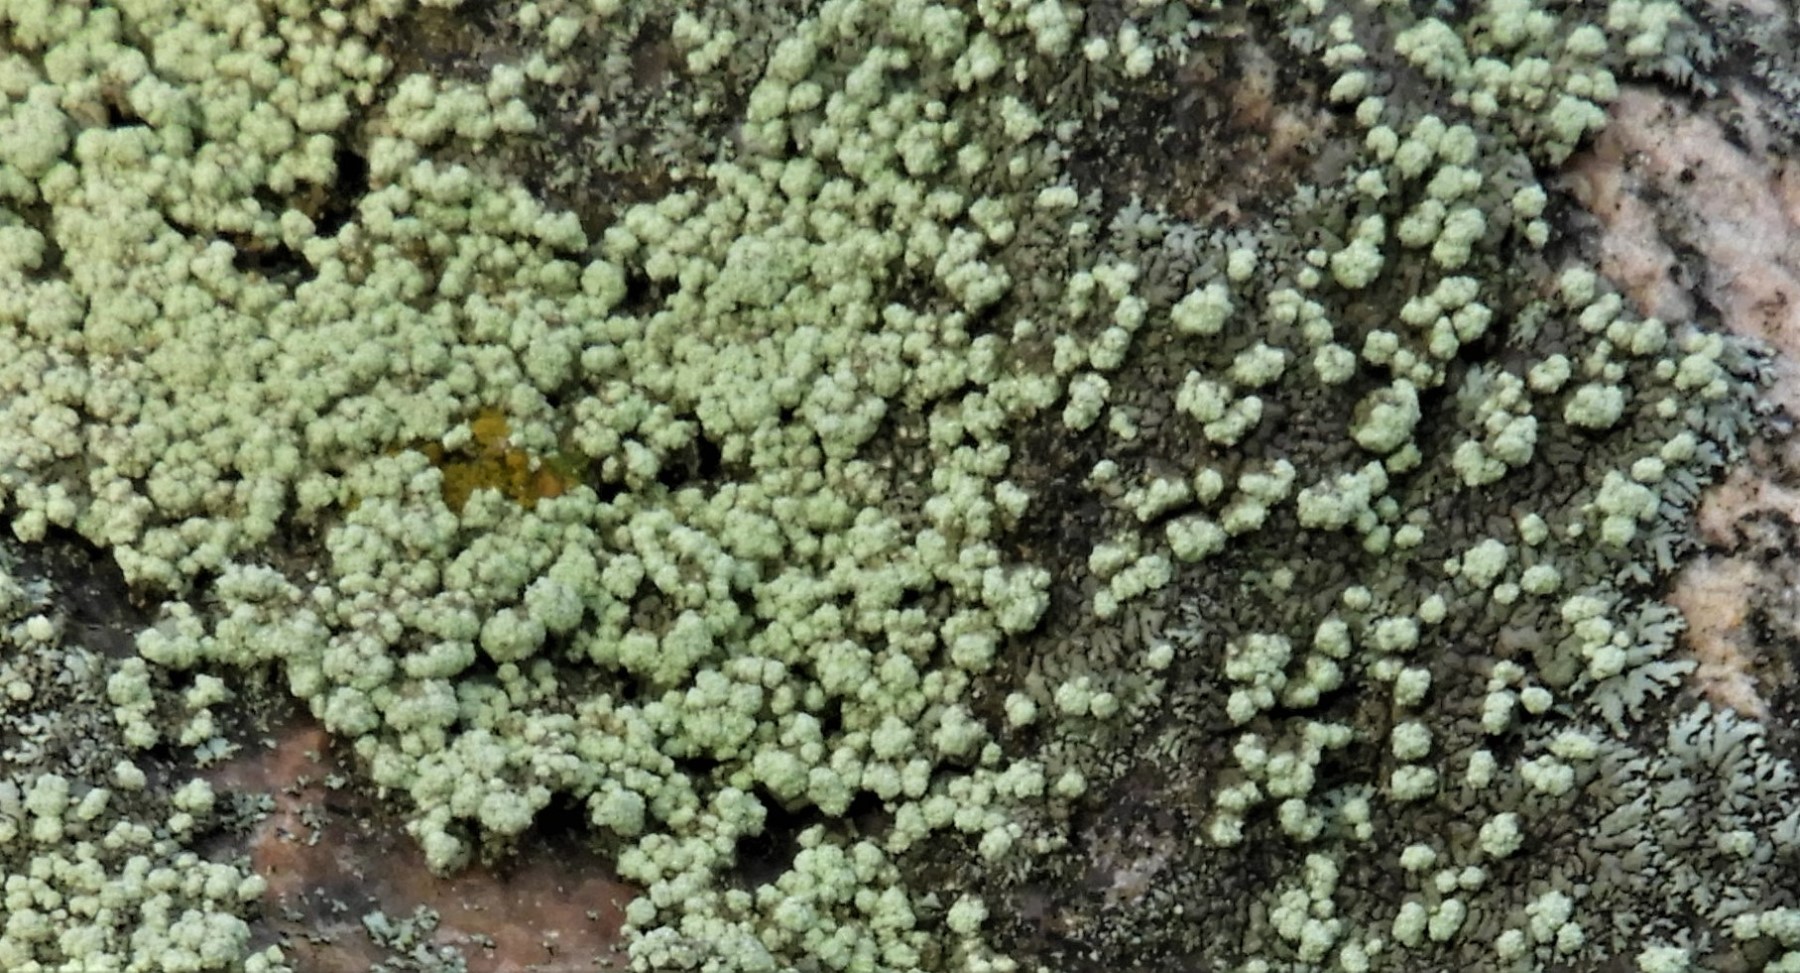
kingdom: Fungi
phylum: Ascomycota
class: Lecanoromycetes
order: Lecanorales
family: Parmeliaceae
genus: Xanthoparmelia
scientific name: Xanthoparmelia mougeotii
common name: liden skållav
